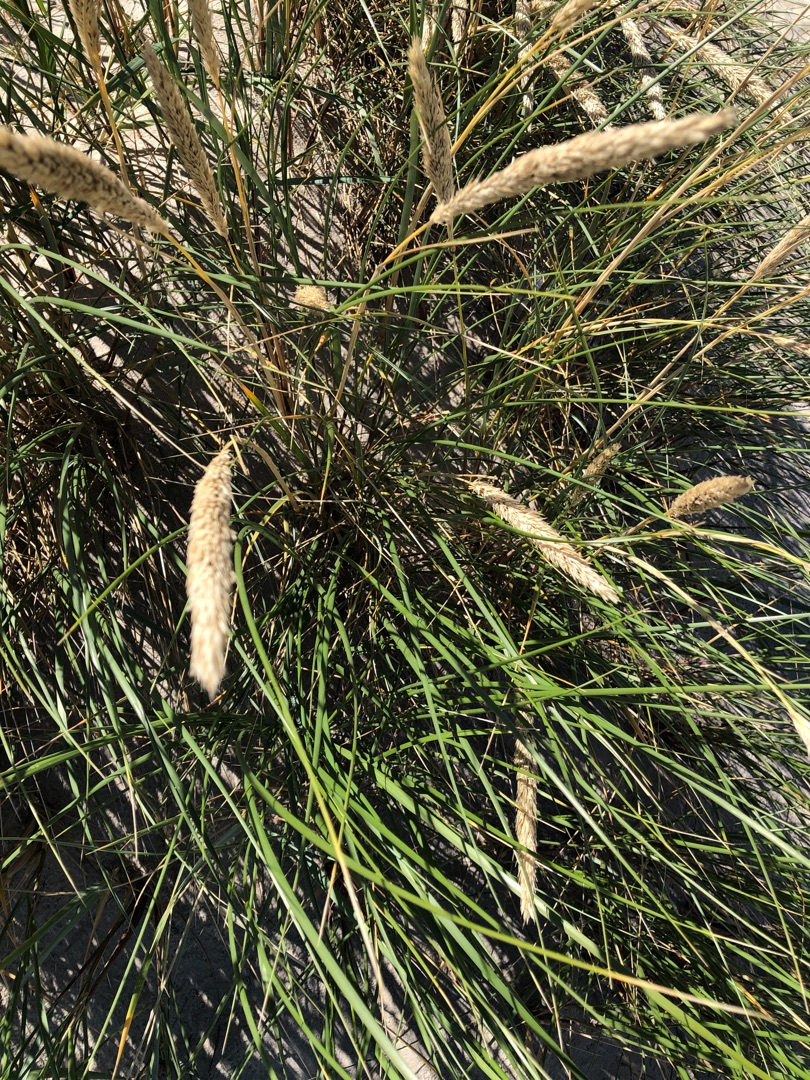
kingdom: Plantae
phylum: Tracheophyta
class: Liliopsida
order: Poales
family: Poaceae
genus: Calamagrostis
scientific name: Calamagrostis arenaria
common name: Sand-hjælme
